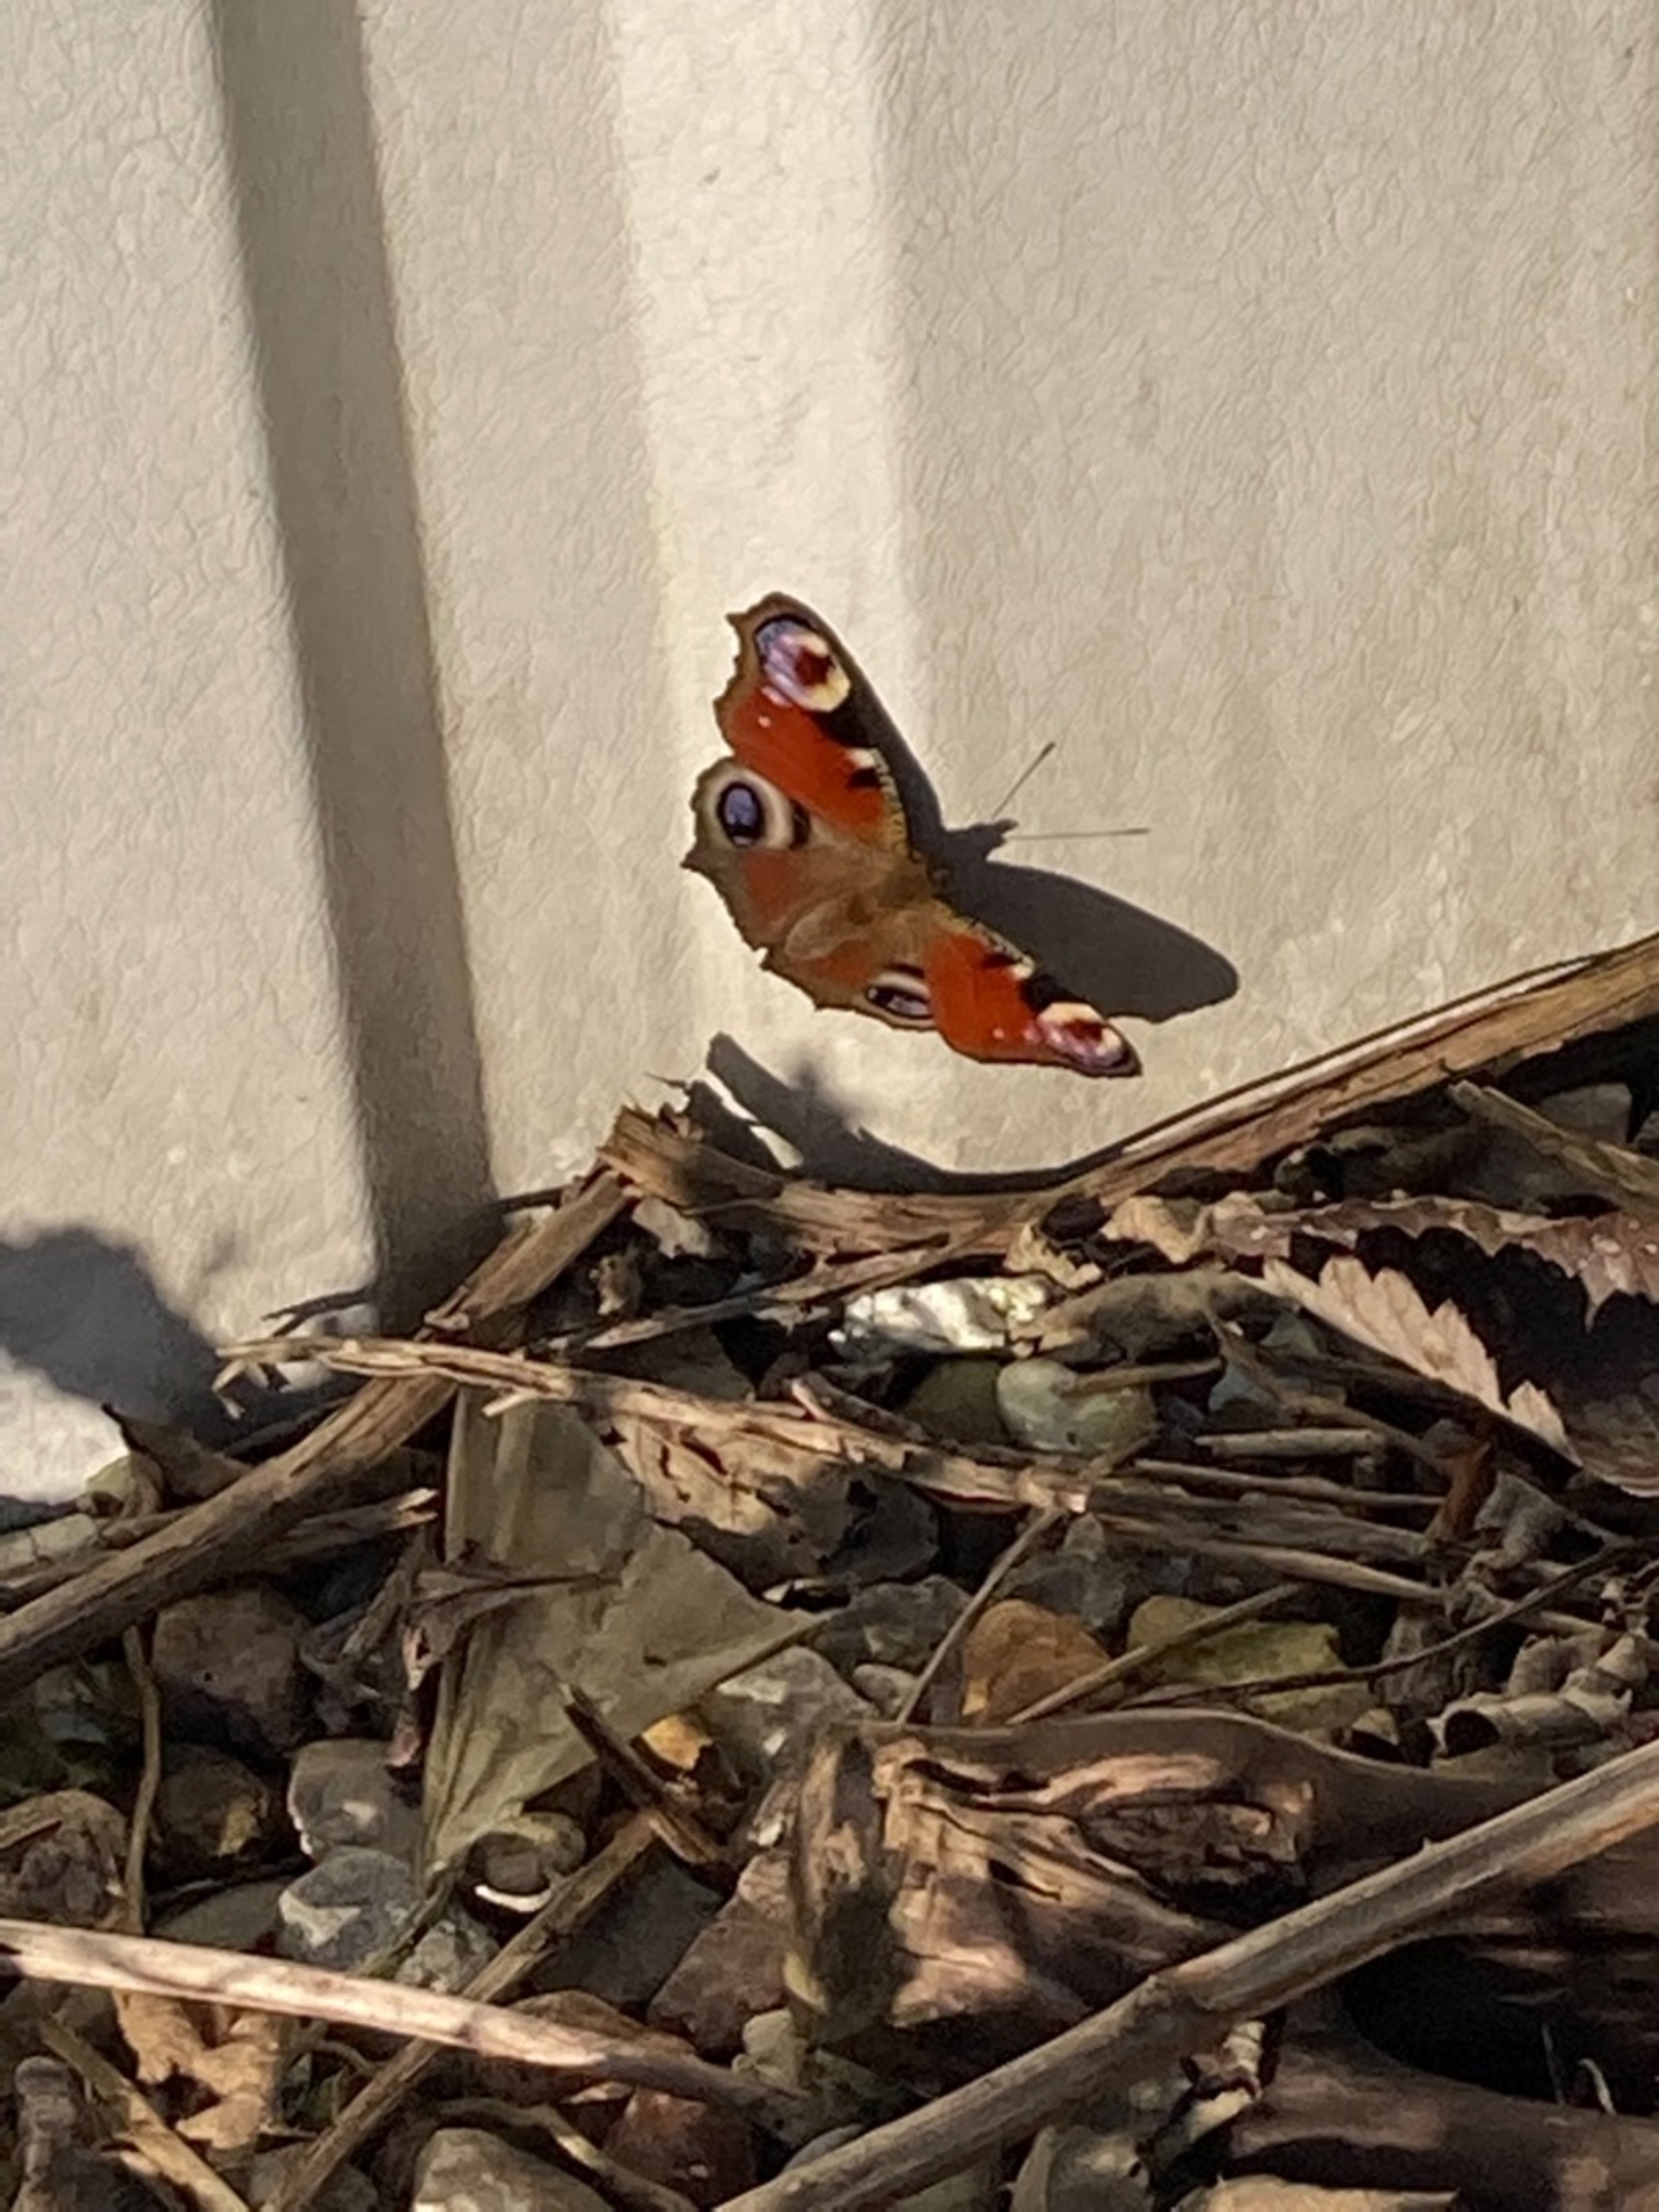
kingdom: Animalia
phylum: Arthropoda
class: Insecta
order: Lepidoptera
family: Nymphalidae
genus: Aglais
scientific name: Aglais io
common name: Dagpåfugleøje
